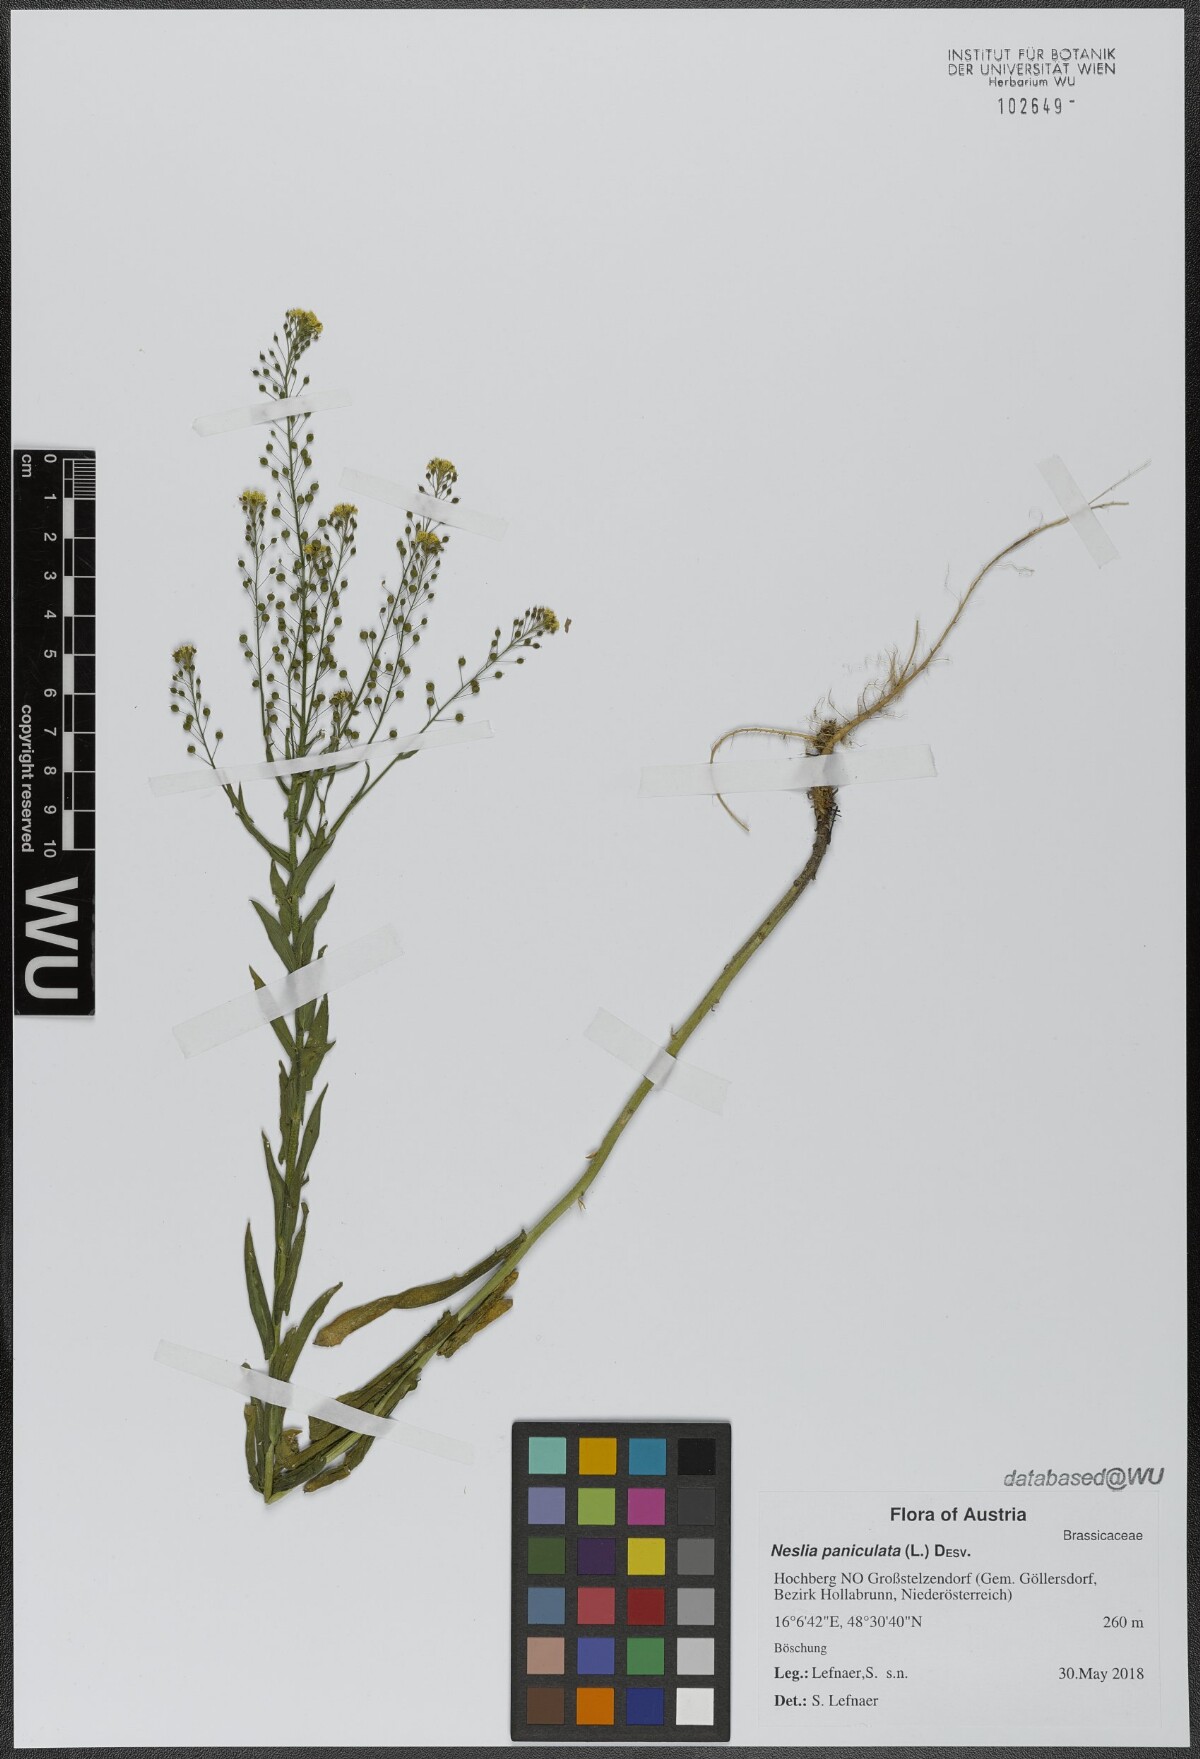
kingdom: Plantae
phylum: Tracheophyta
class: Magnoliopsida
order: Brassicales
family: Brassicaceae
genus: Neslia
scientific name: Neslia paniculata
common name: Ball mustard
